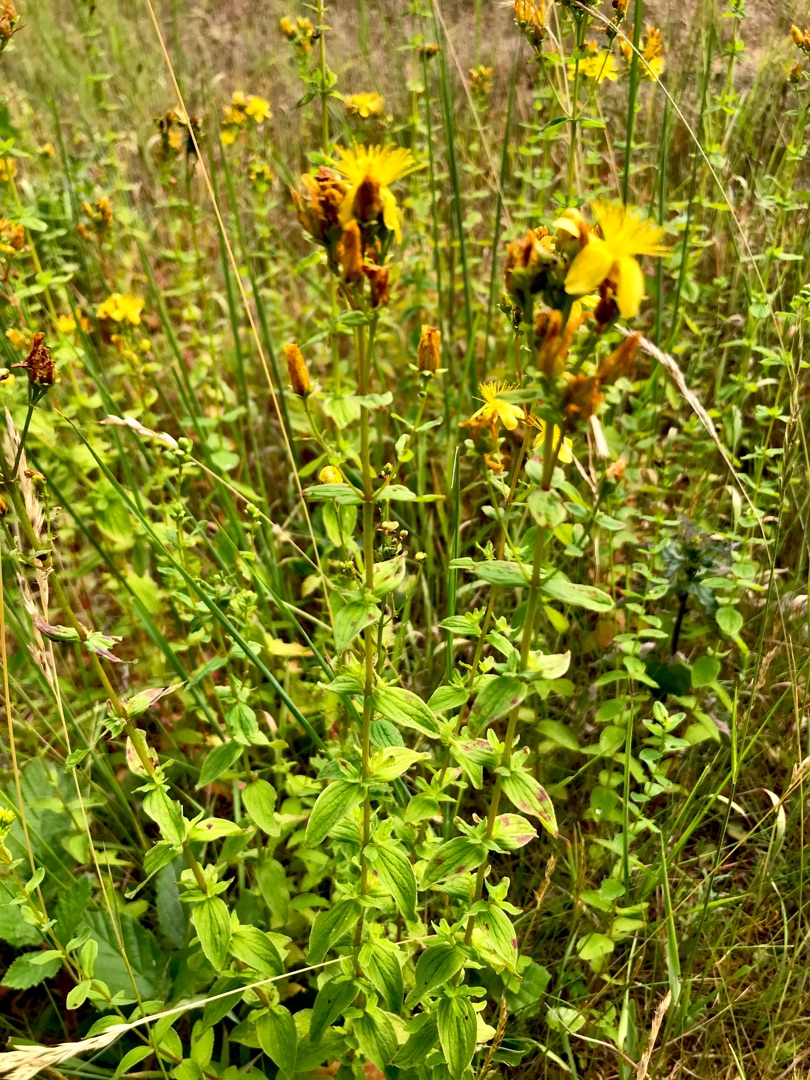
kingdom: Plantae
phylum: Tracheophyta
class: Magnoliopsida
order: Malpighiales
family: Hypericaceae
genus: Hypericum
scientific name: Hypericum maculatum
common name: Kantet perikon
